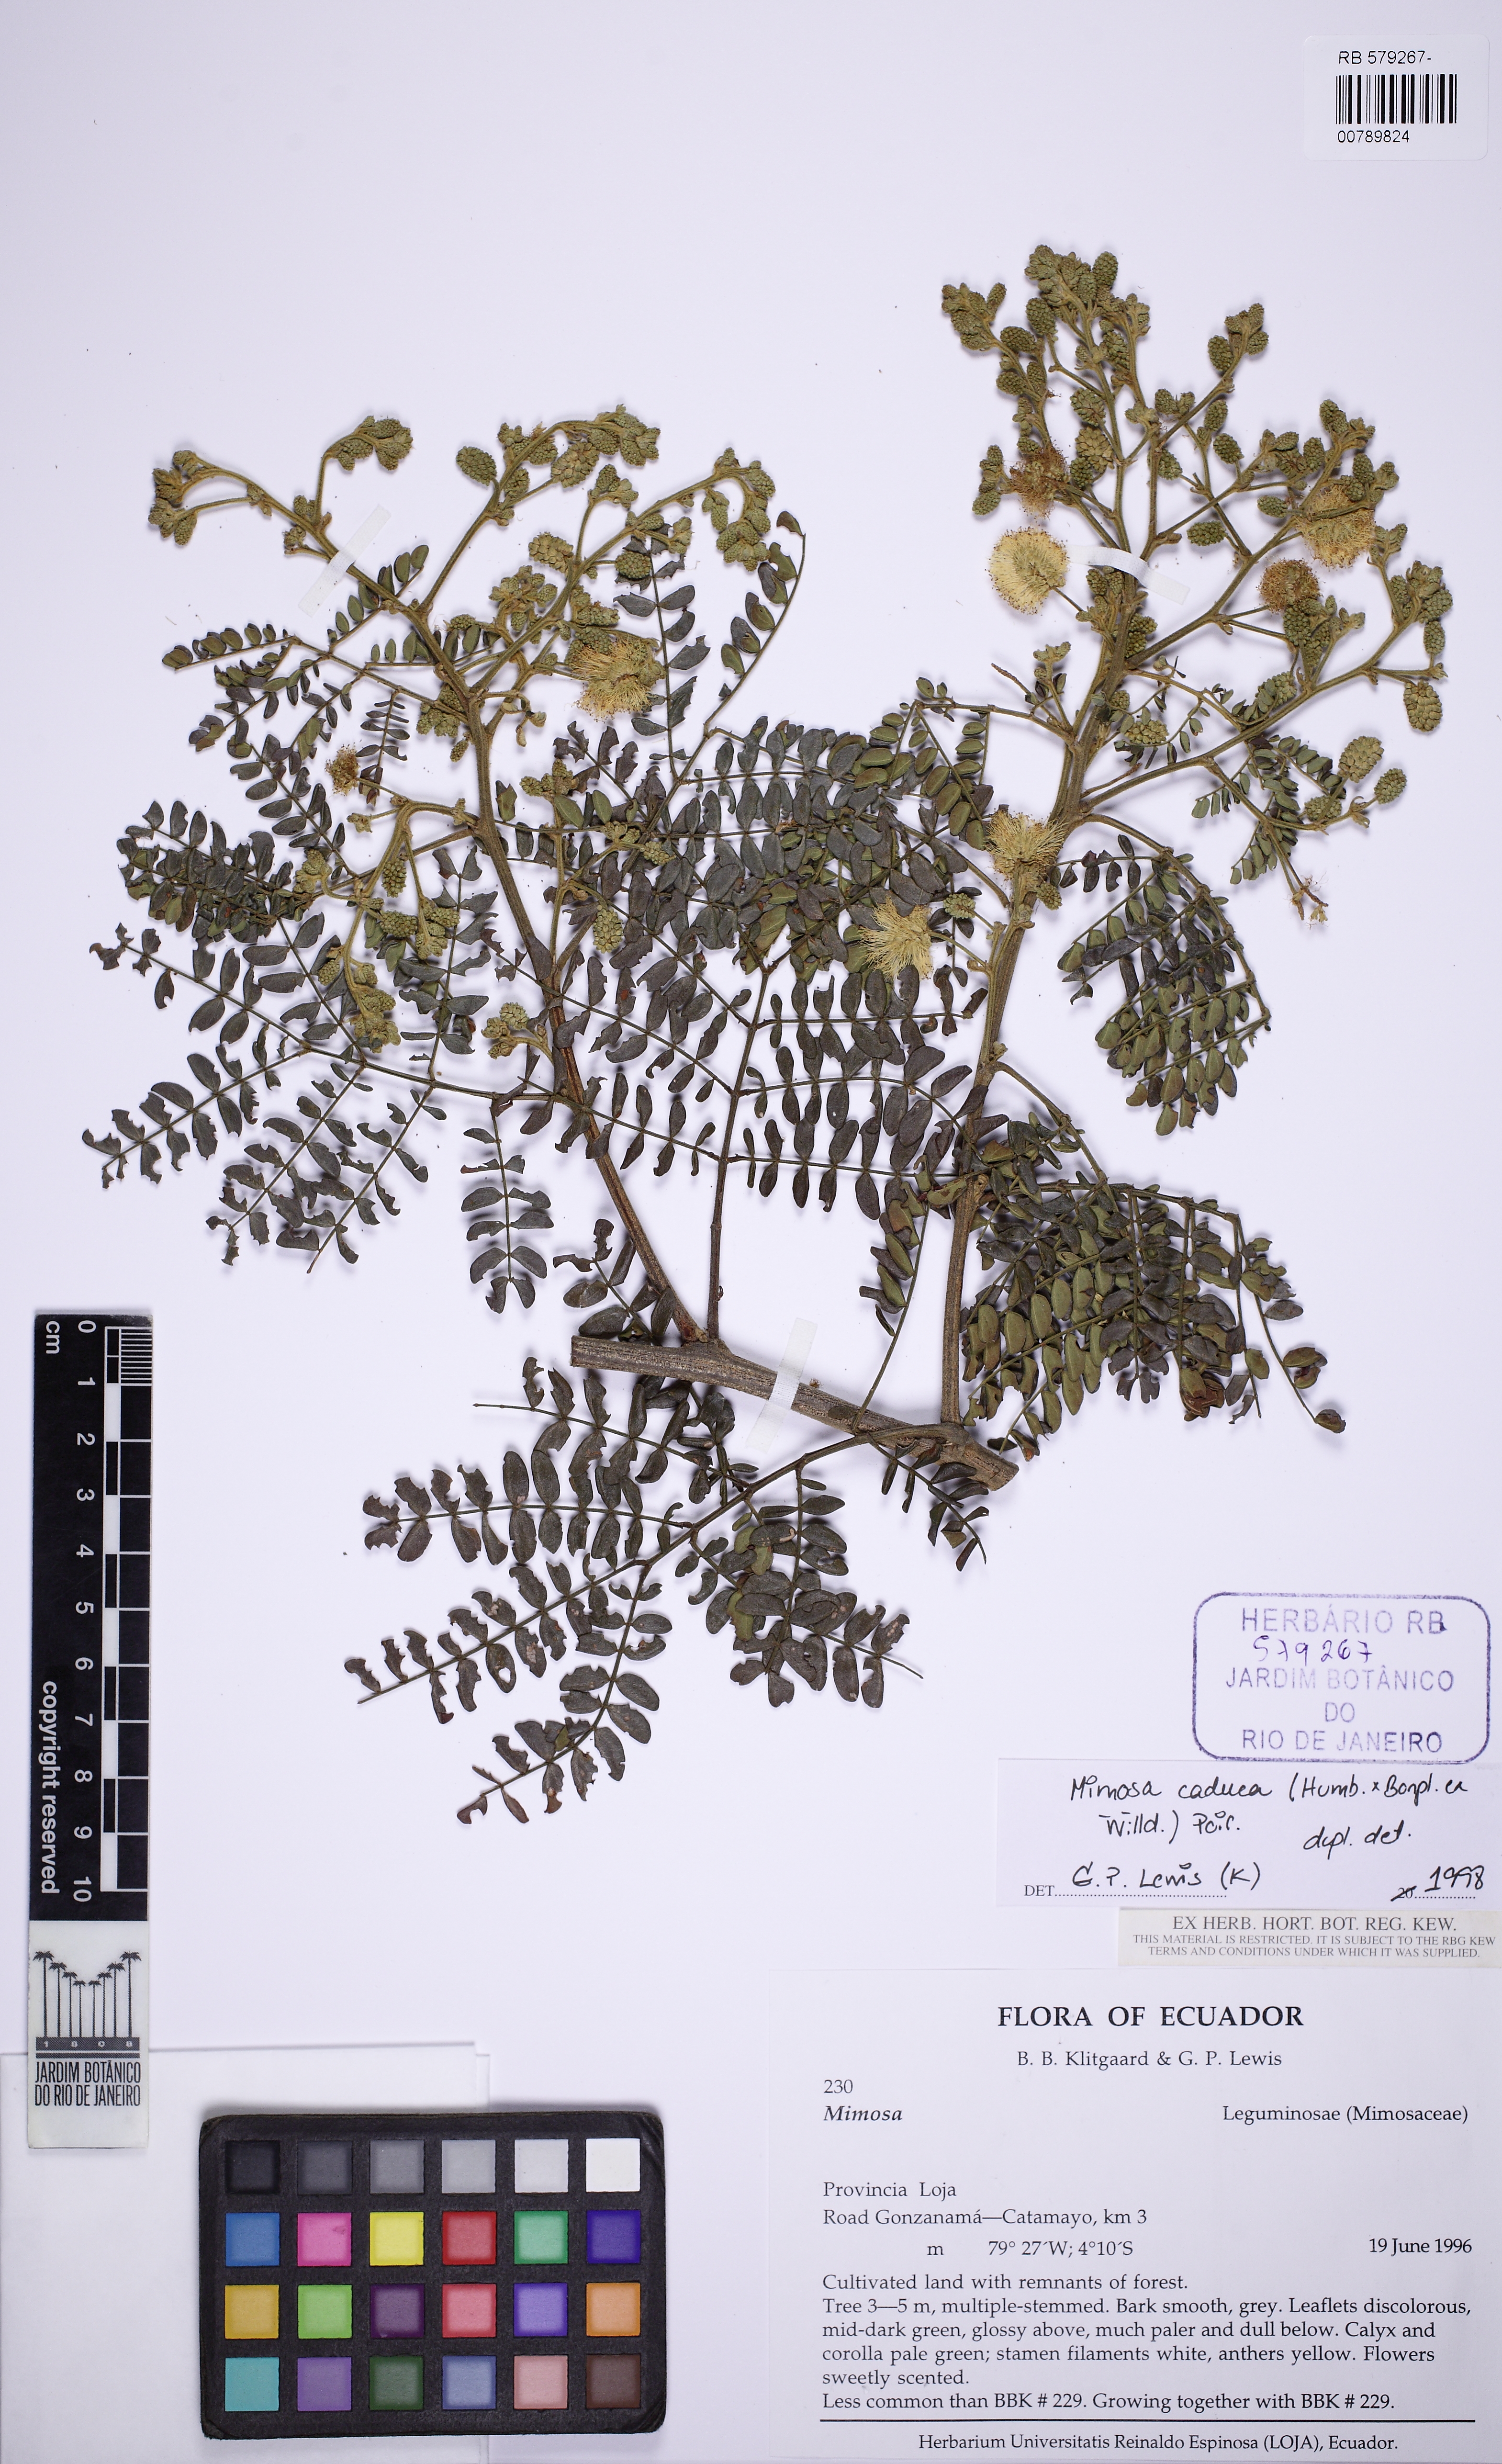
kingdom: Plantae
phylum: Tracheophyta
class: Magnoliopsida
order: Fabales
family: Fabaceae
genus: Mimosa
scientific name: Mimosa caduca
